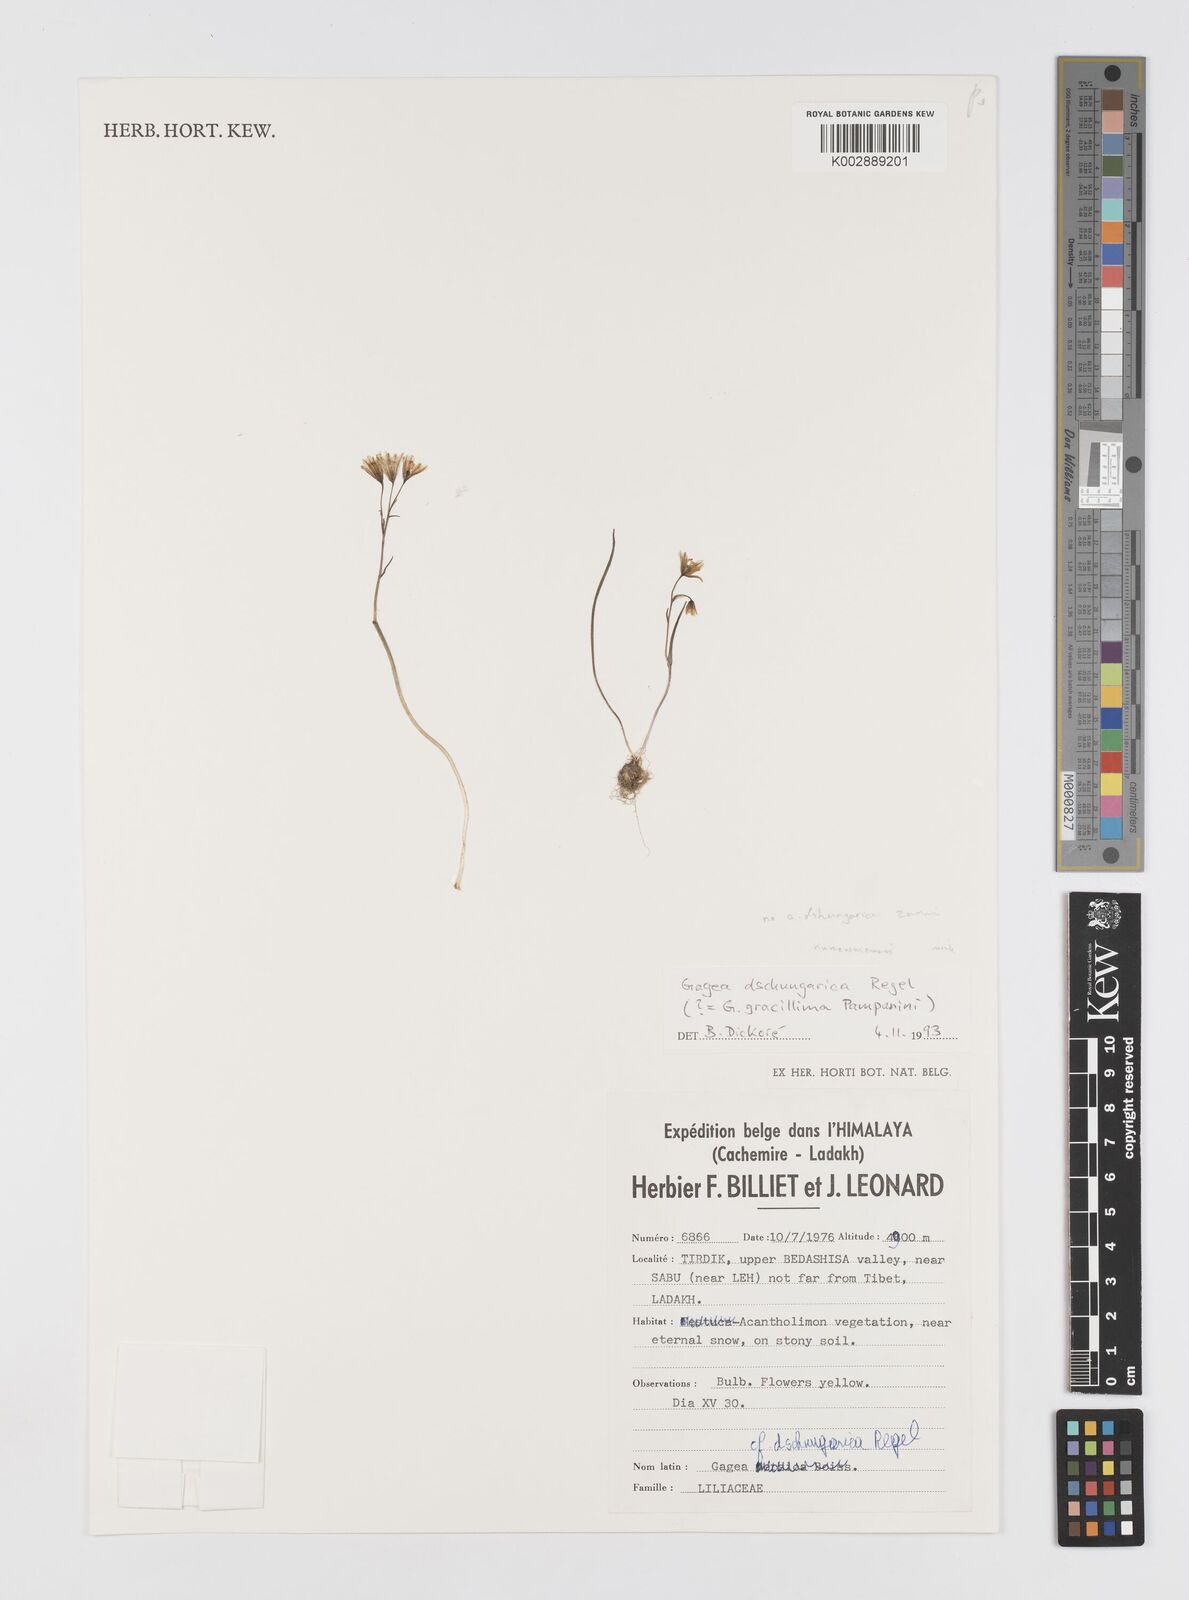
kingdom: Plantae
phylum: Tracheophyta
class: Liliopsida
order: Liliales
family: Liliaceae
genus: Gagea
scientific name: Gagea dschungarica
